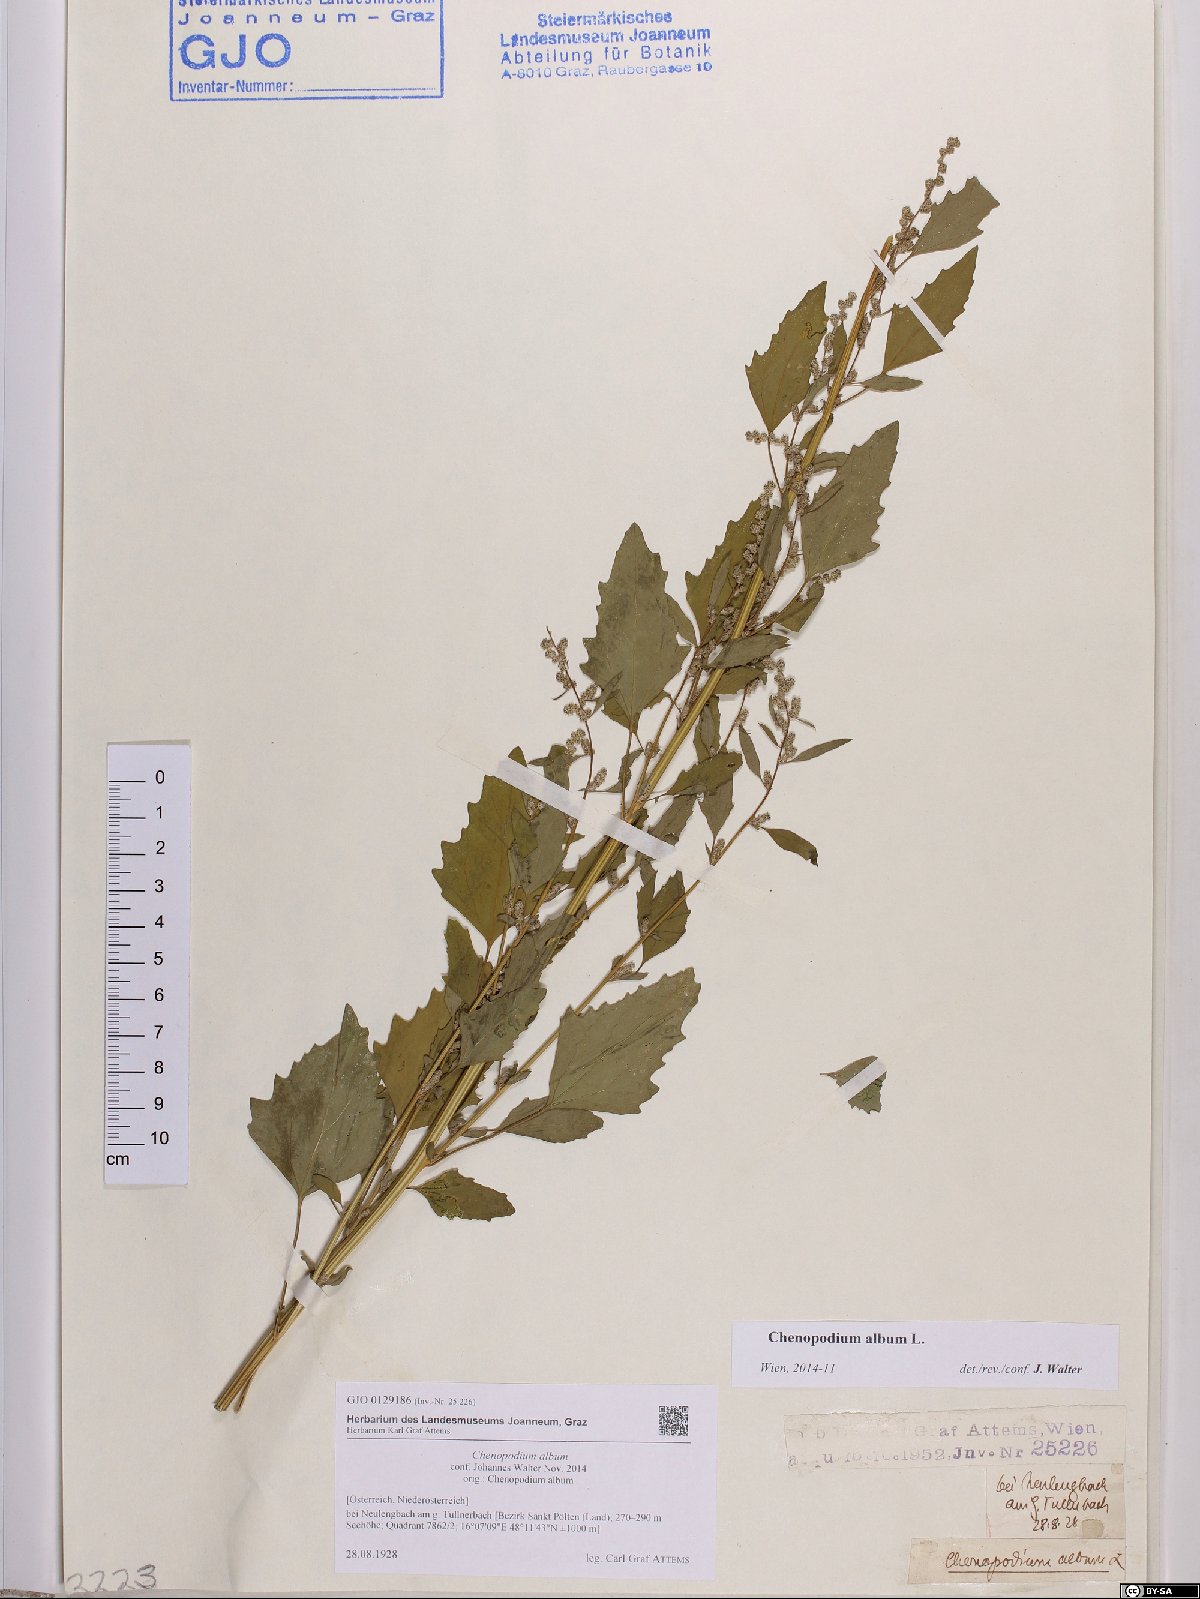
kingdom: Plantae
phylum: Tracheophyta
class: Magnoliopsida
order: Caryophyllales
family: Amaranthaceae
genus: Chenopodium
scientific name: Chenopodium album
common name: Fat-hen
